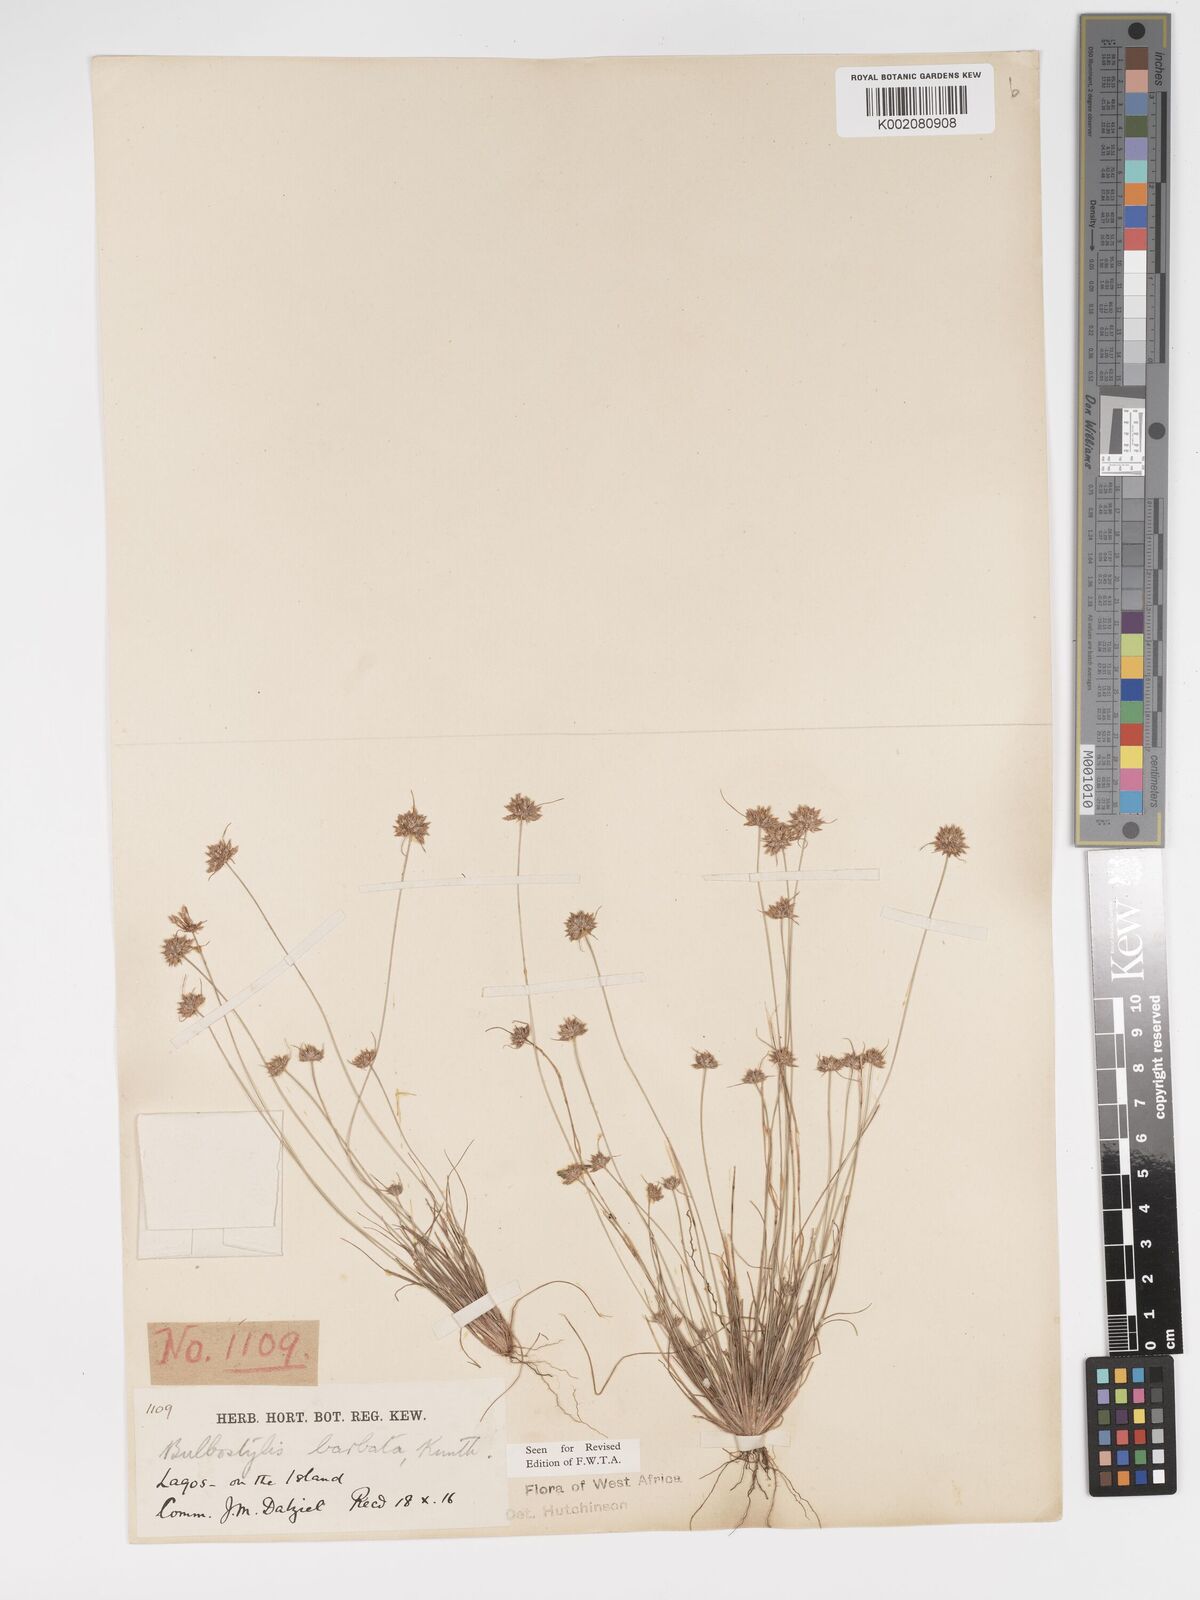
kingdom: Plantae
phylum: Tracheophyta
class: Liliopsida
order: Poales
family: Cyperaceae
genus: Bulbostylis
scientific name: Bulbostylis barbata
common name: Watergrass
